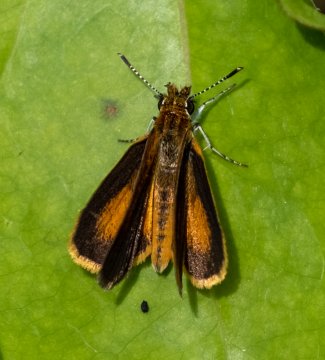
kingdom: Animalia
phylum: Arthropoda
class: Insecta
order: Lepidoptera
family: Hesperiidae
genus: Ancyloxypha
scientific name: Ancyloxypha numitor
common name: Least Skipper
